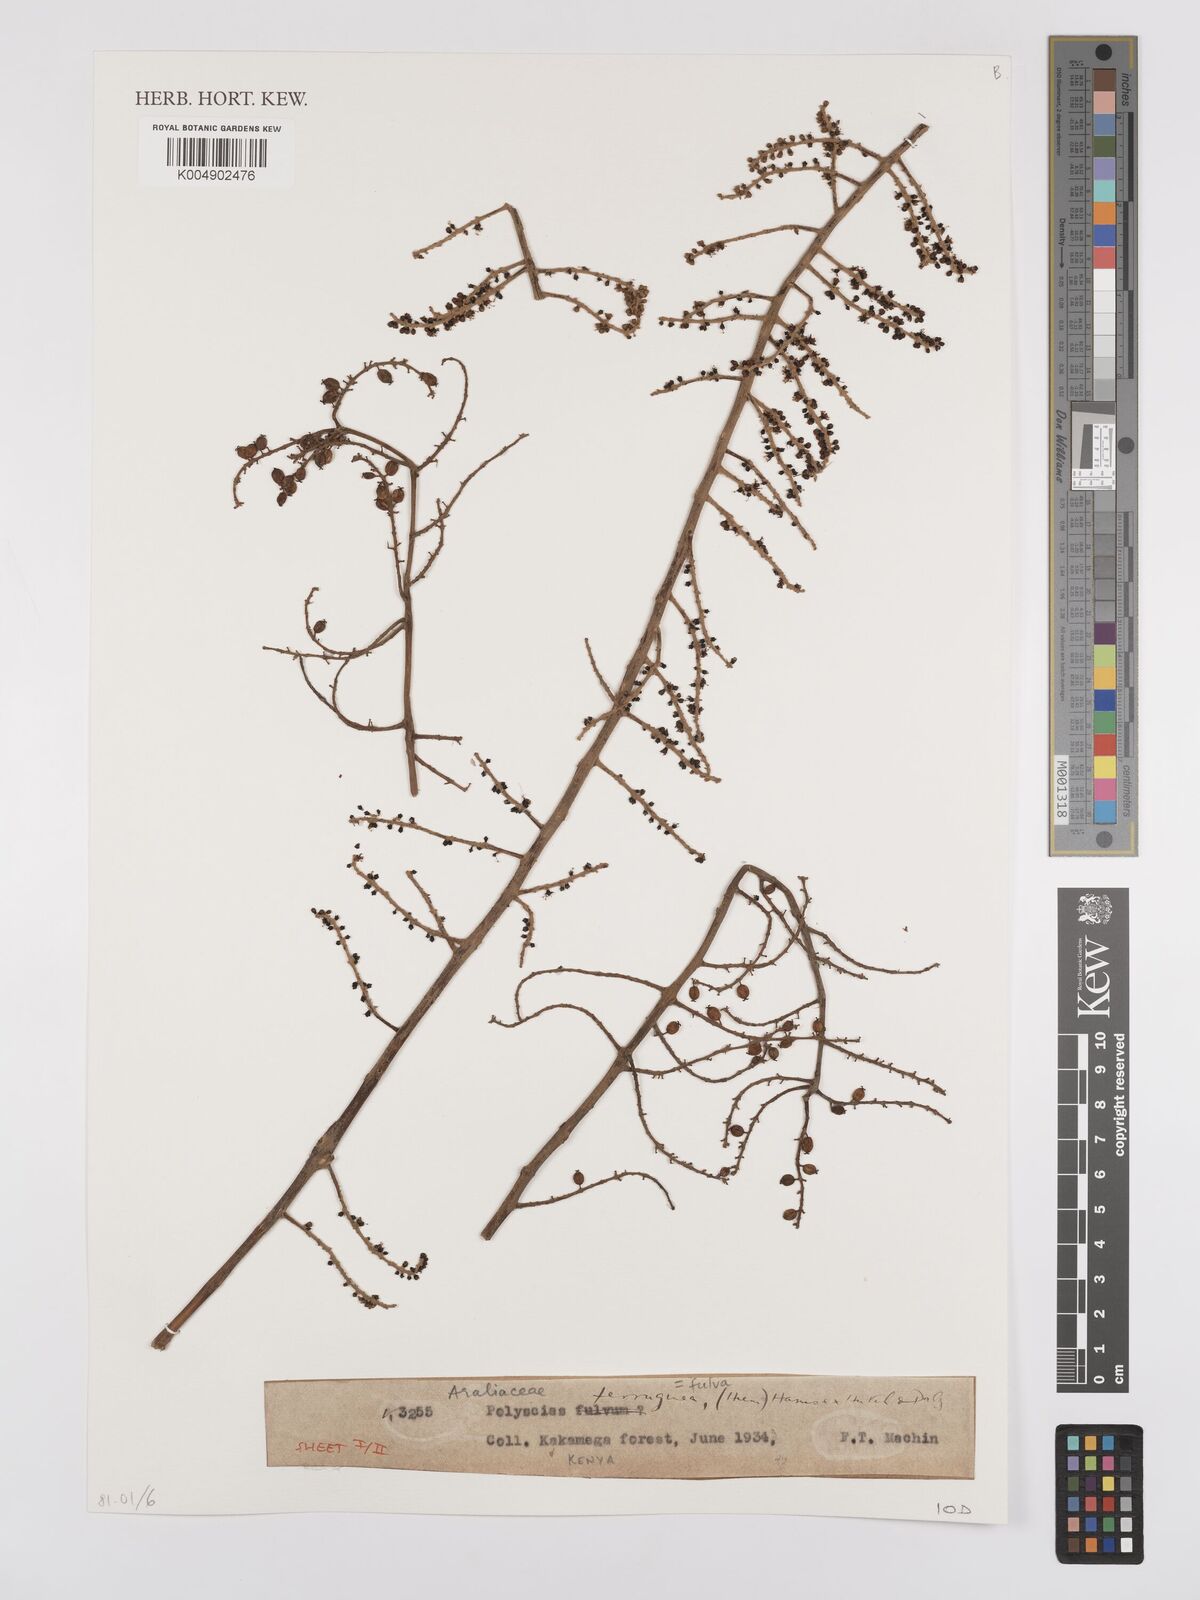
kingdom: Plantae
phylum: Tracheophyta
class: Magnoliopsida
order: Apiales
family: Araliaceae
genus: Polyscias
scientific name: Polyscias fulva
